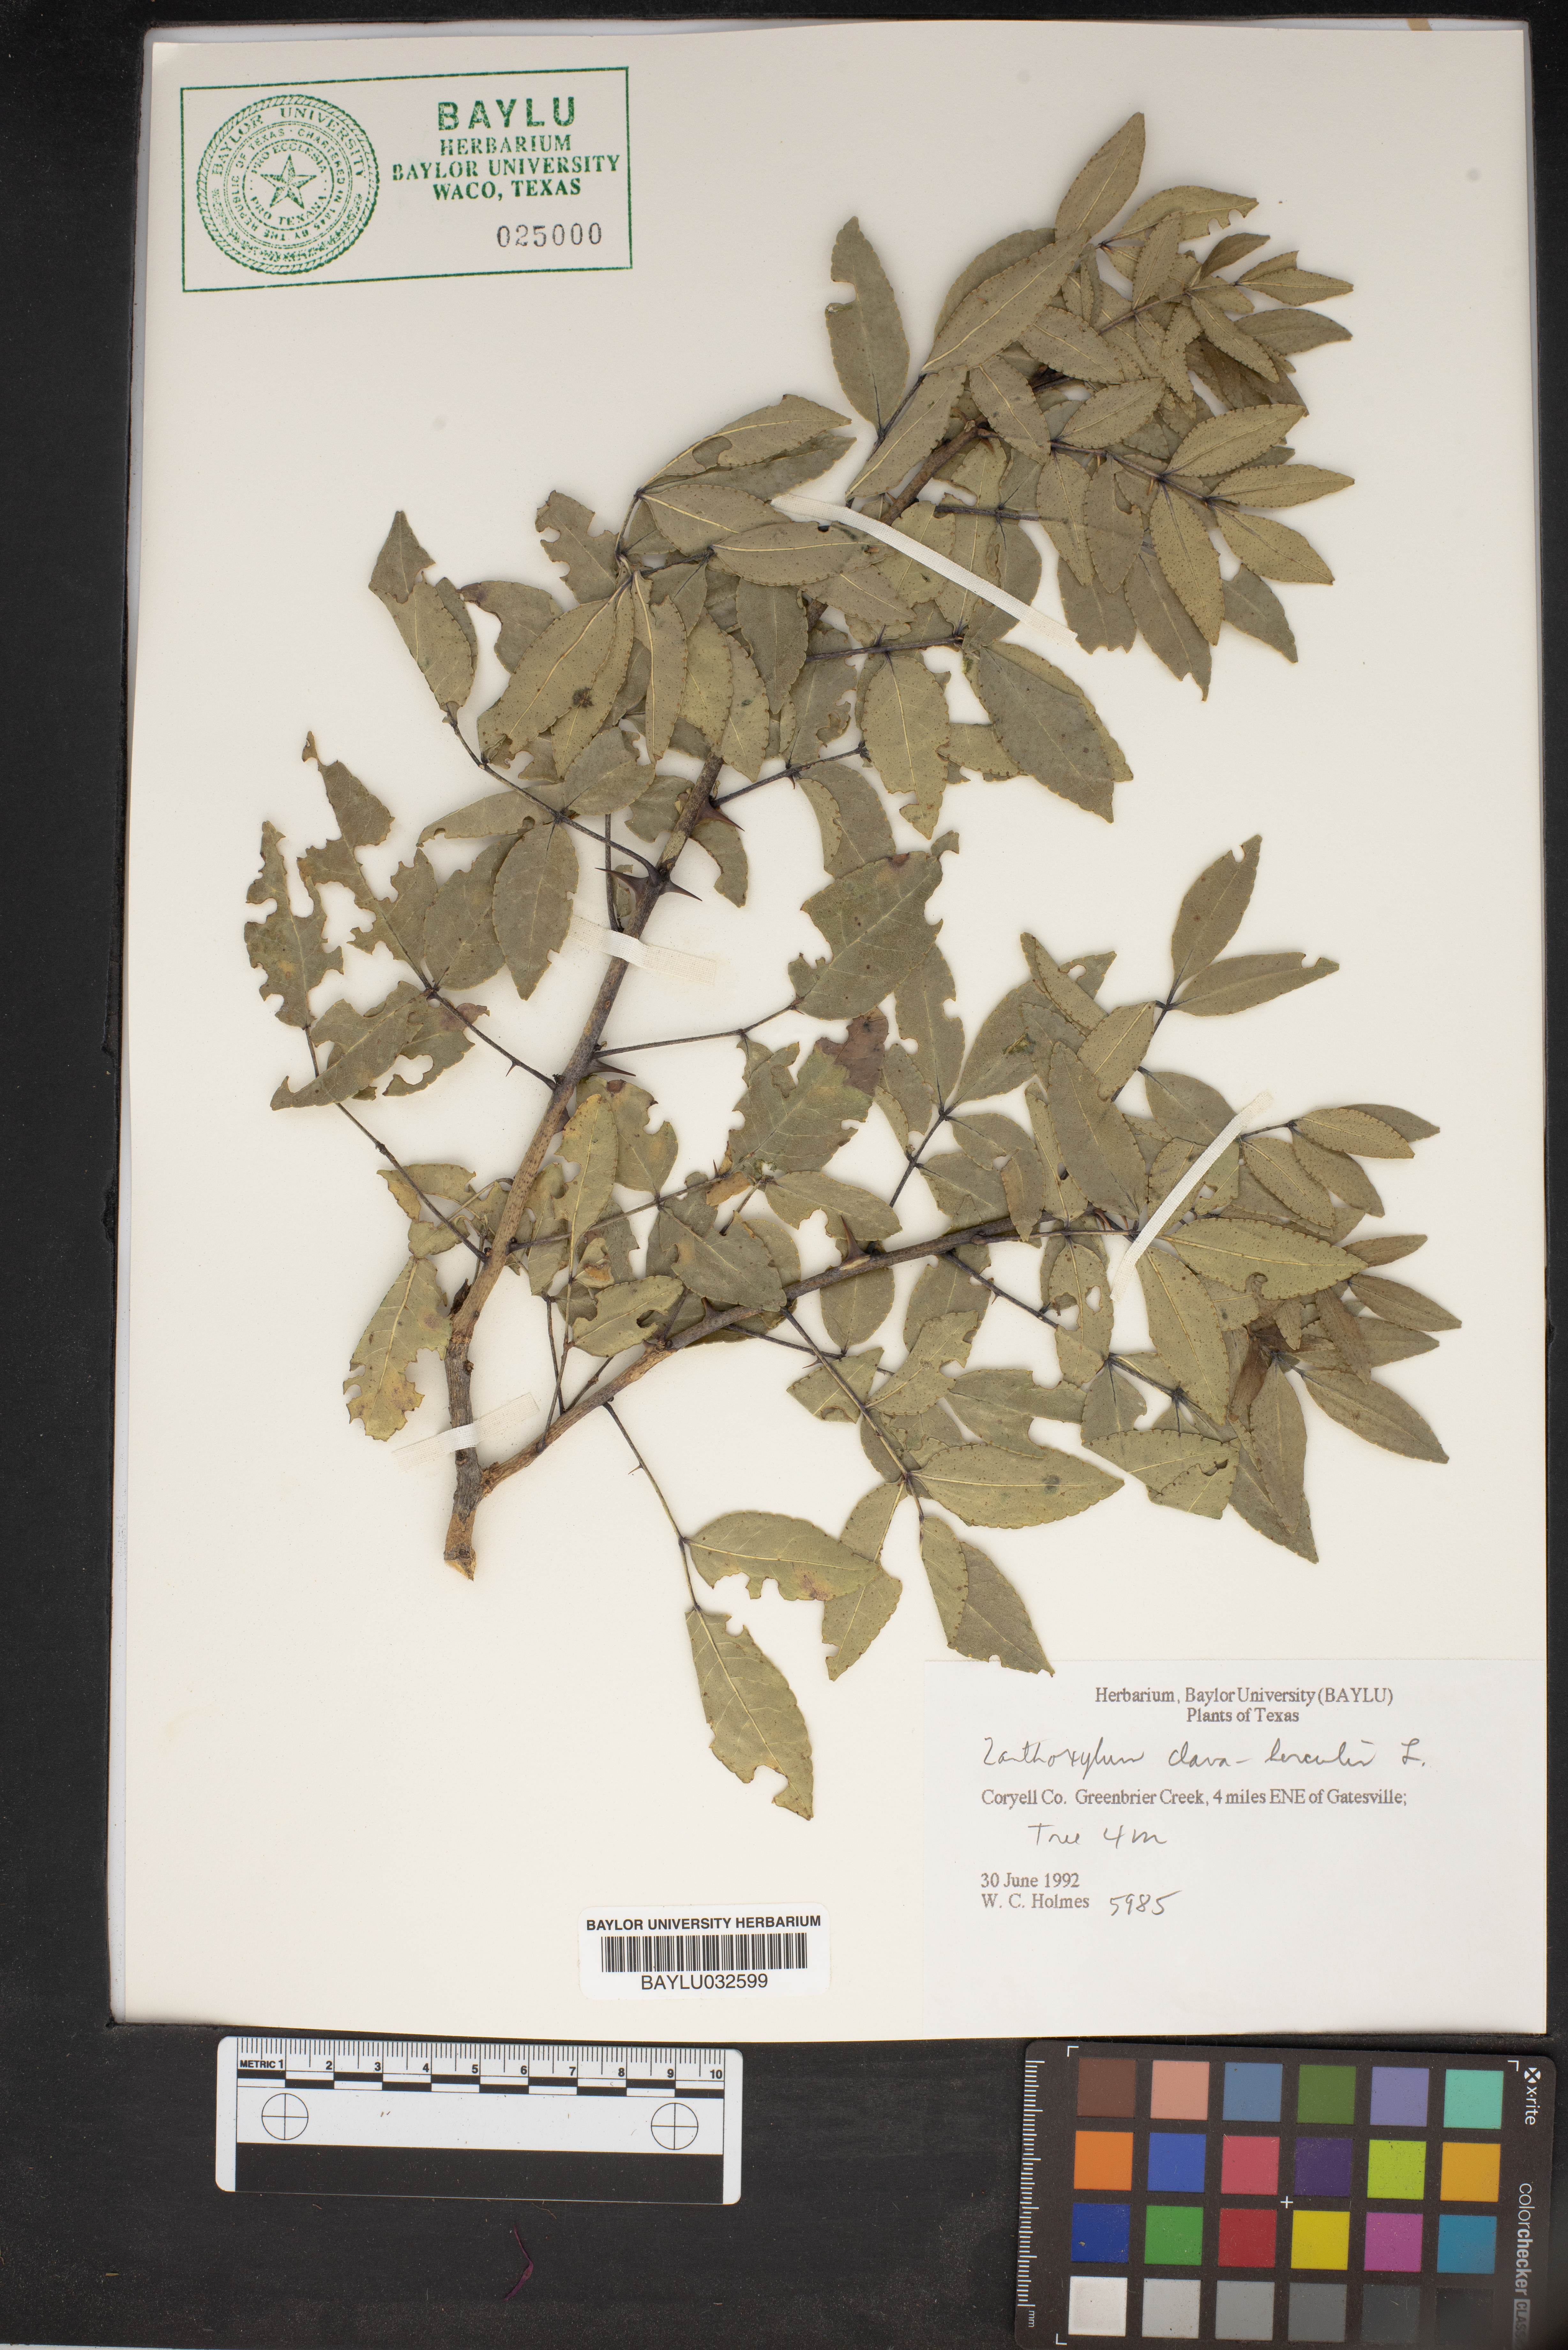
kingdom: Plantae
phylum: Tracheophyta
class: Magnoliopsida
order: Sapindales
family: Rutaceae
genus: Zanthoxylum
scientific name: Zanthoxylum avicennae
